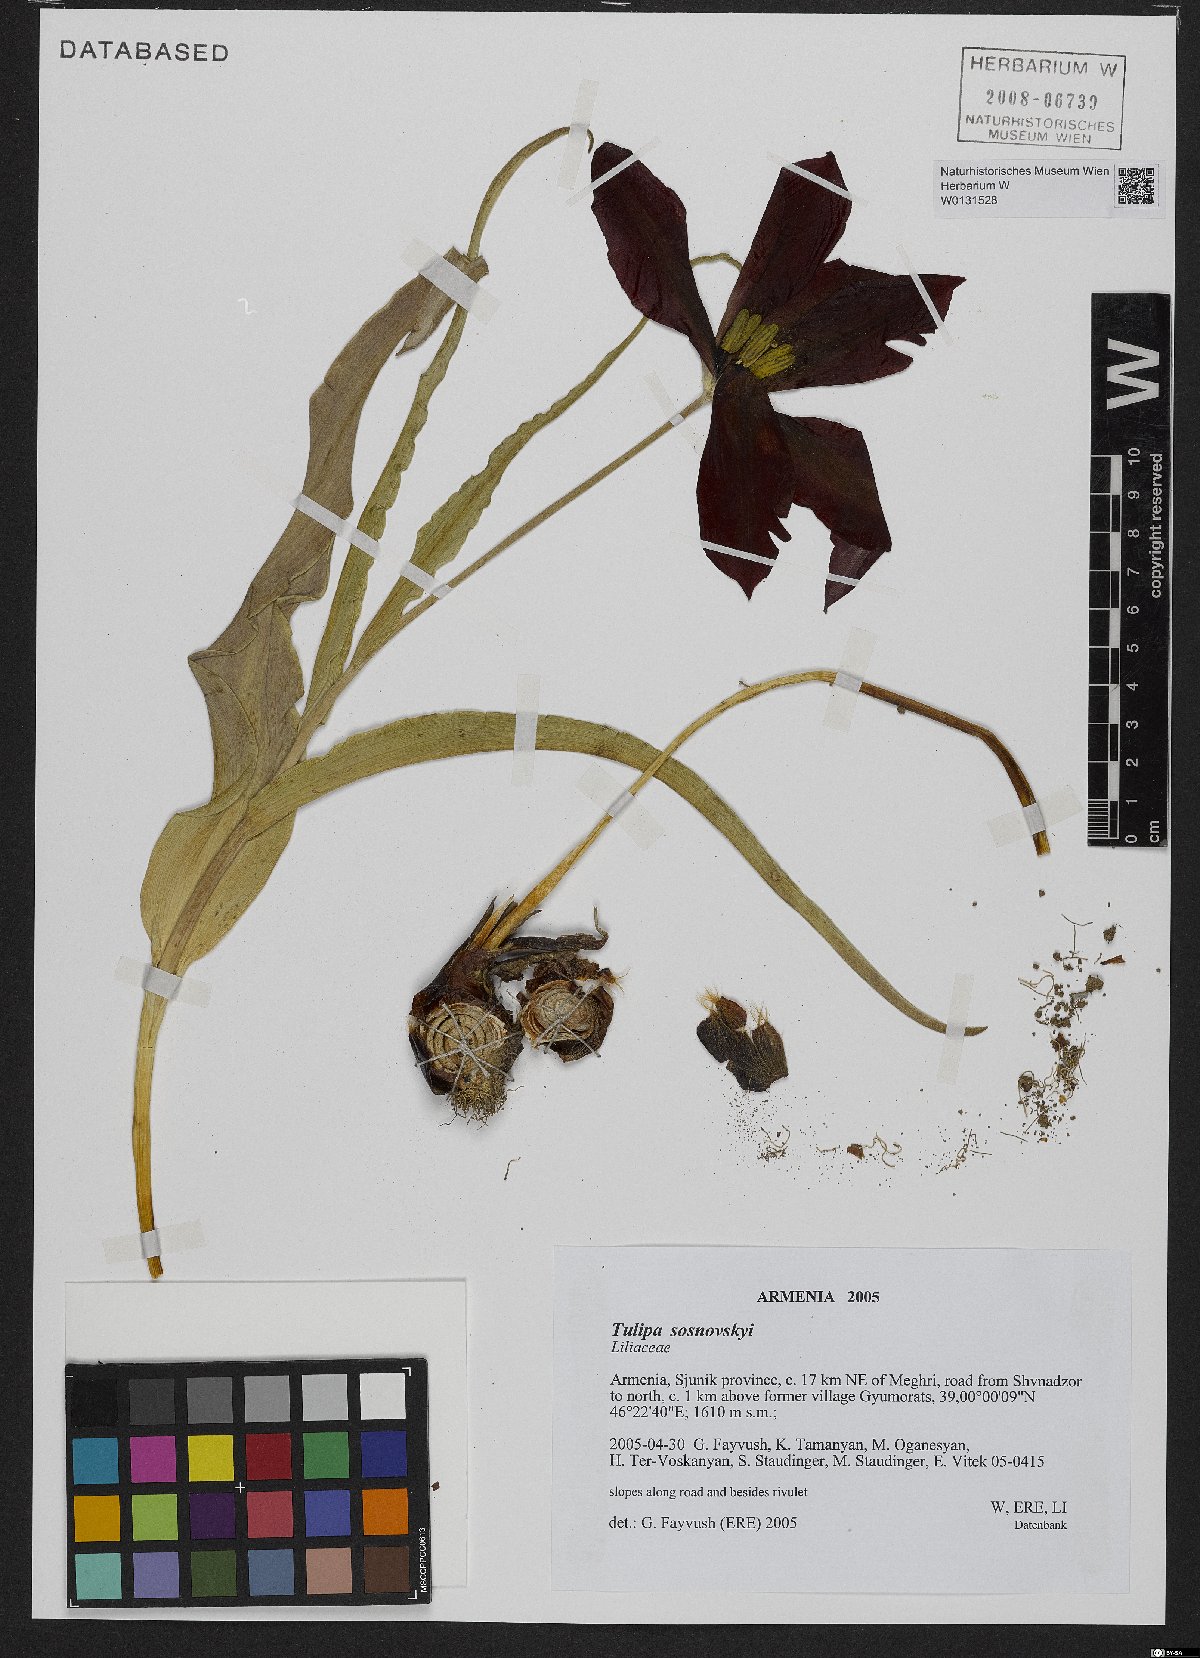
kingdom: Plantae
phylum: Tracheophyta
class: Liliopsida
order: Liliales
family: Liliaceae
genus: Tulipa
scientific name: Tulipa sosnowskyi
